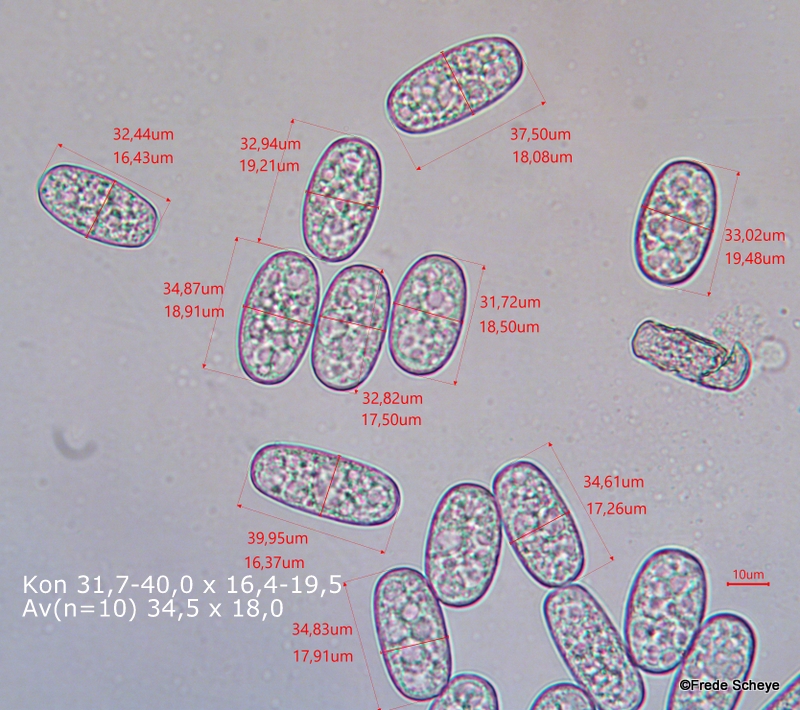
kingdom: Fungi
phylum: Ascomycota
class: Leotiomycetes
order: Helotiales
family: Erysiphaceae
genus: Erysiphe
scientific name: Erysiphe alphitoides
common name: ege-meldug
